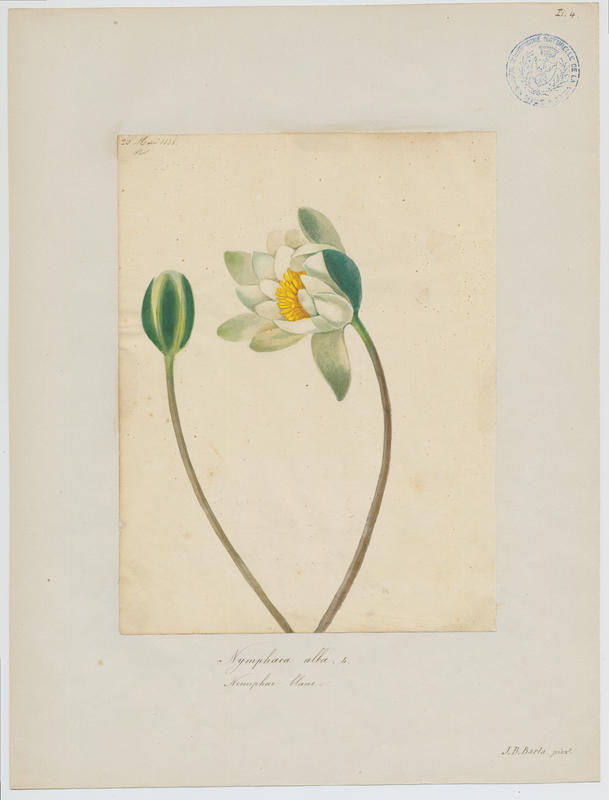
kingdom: Plantae
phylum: Tracheophyta
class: Magnoliopsida
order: Nymphaeales
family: Nymphaeaceae
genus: Nymphaea
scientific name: Nymphaea alba
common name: White water-lily
